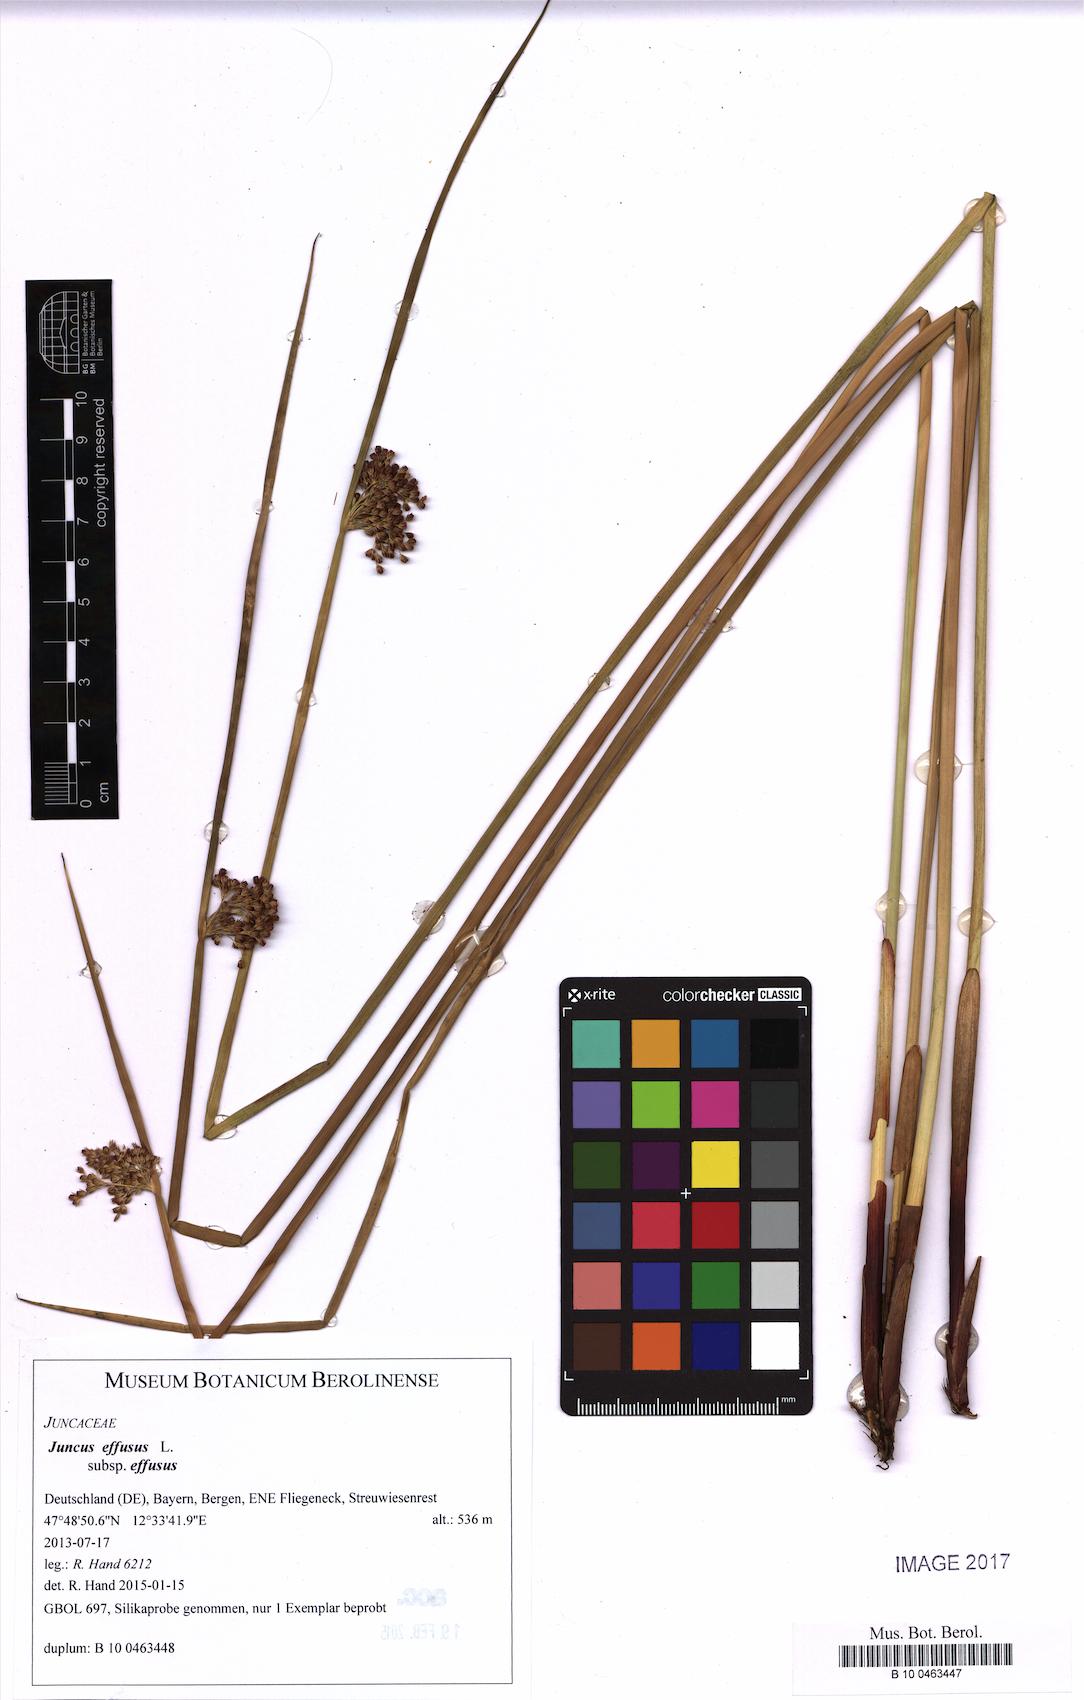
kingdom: Plantae
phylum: Tracheophyta
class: Liliopsida
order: Poales
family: Juncaceae
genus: Juncus
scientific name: Juncus effusus
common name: Soft rush
